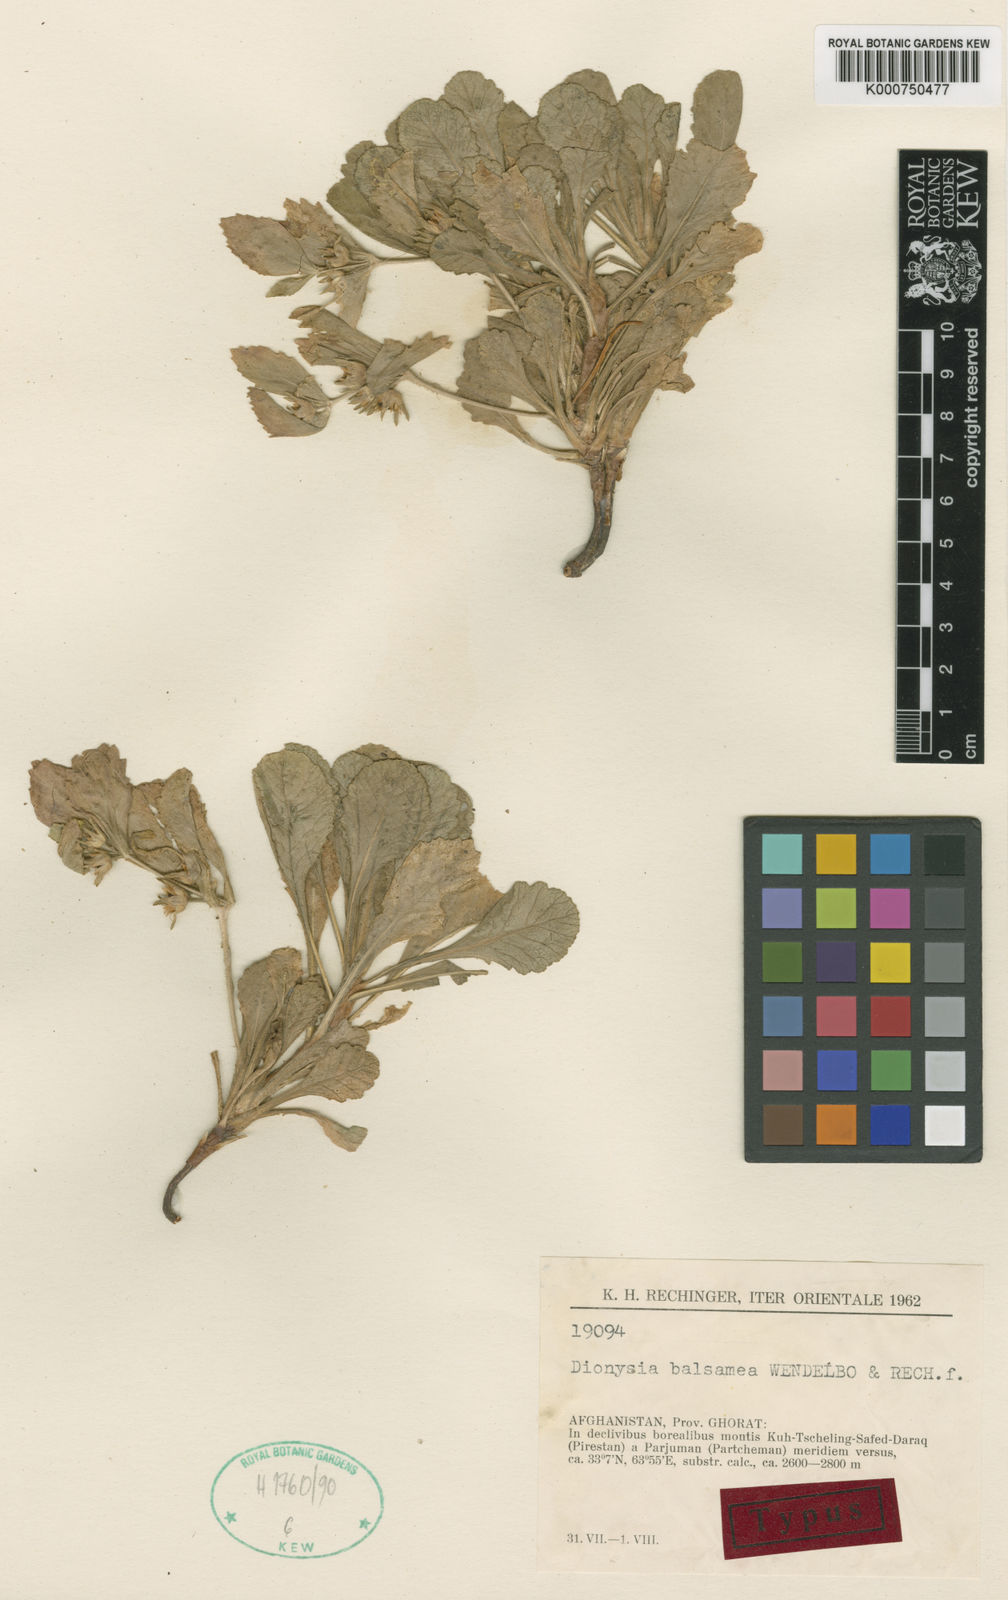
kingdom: Plantae
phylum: Tracheophyta
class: Magnoliopsida
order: Ericales
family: Primulaceae
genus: Dionysia
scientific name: Dionysia balsamea
